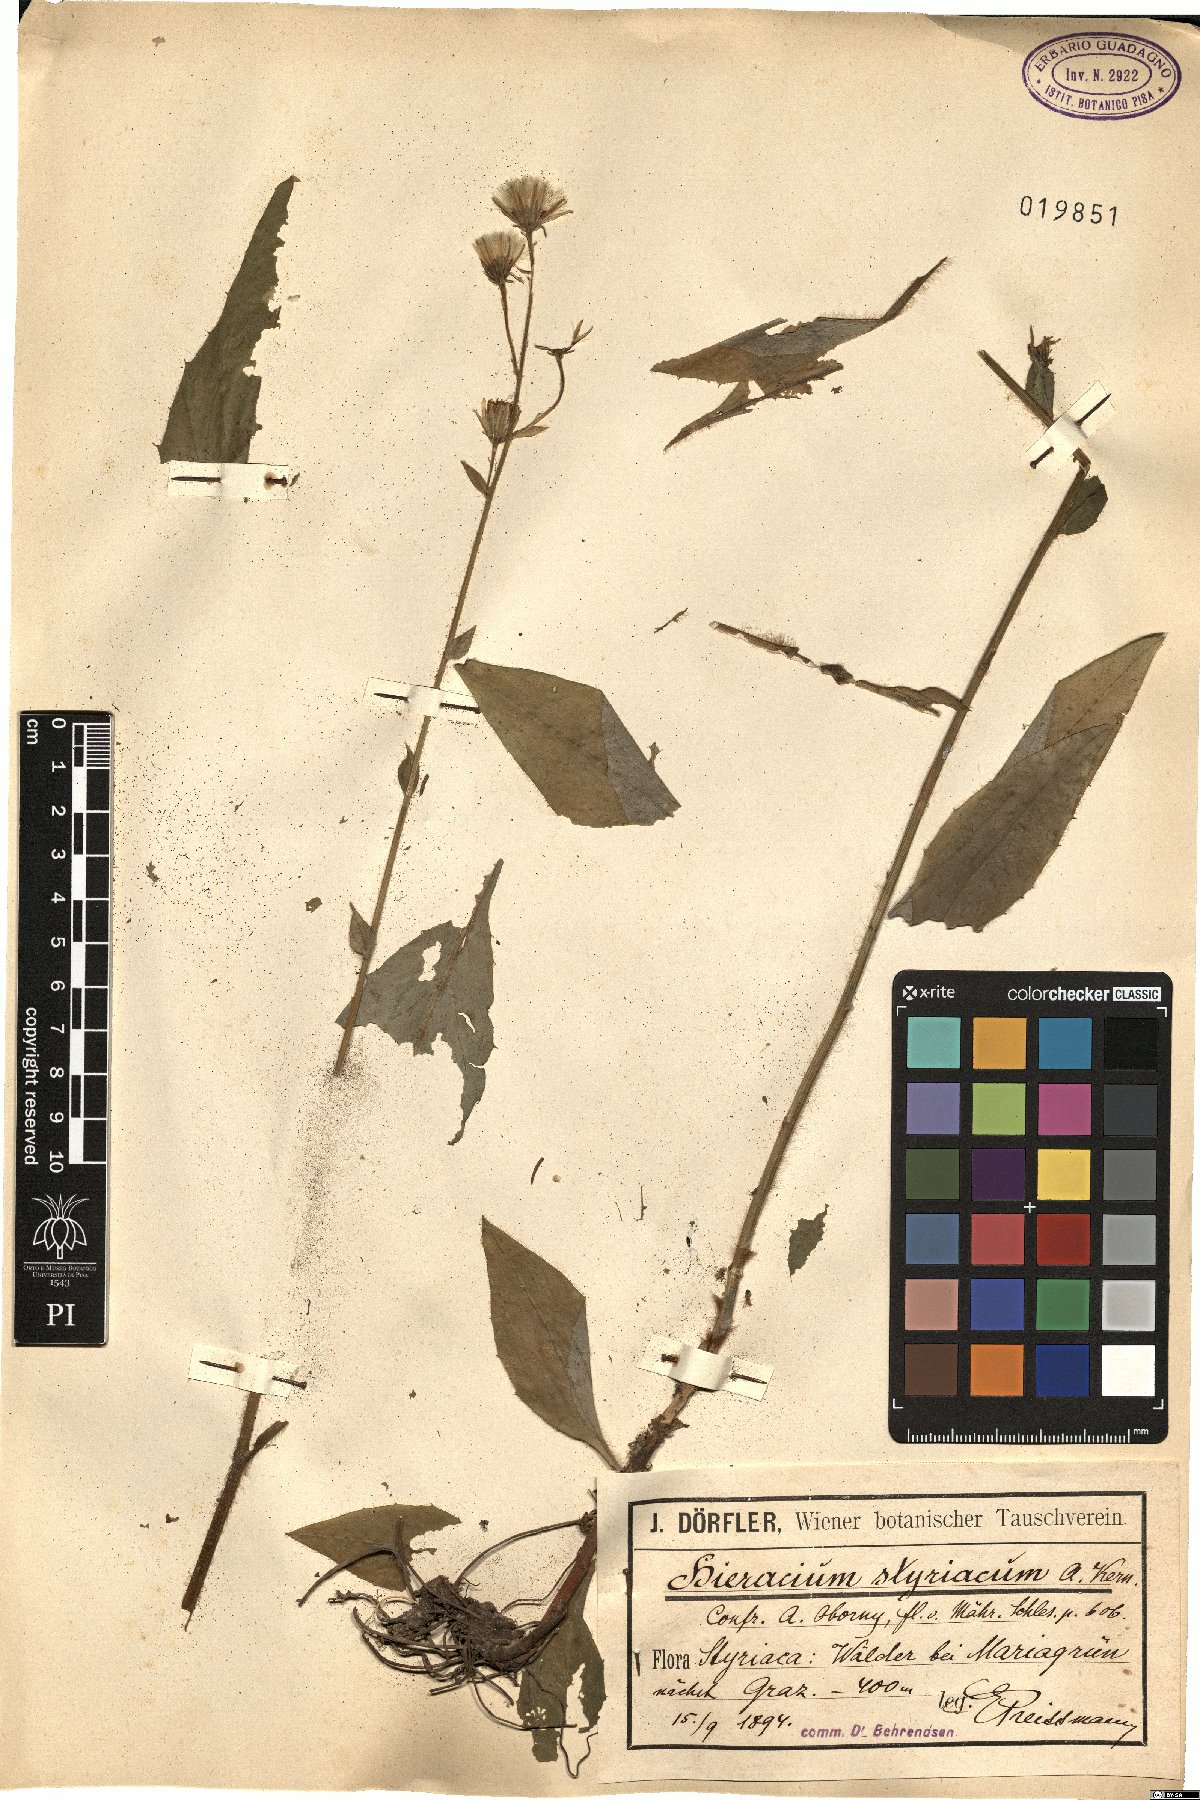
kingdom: Plantae
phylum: Tracheophyta
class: Magnoliopsida
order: Asterales
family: Asteraceae
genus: Hieracium
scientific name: Hieracium styriacum
